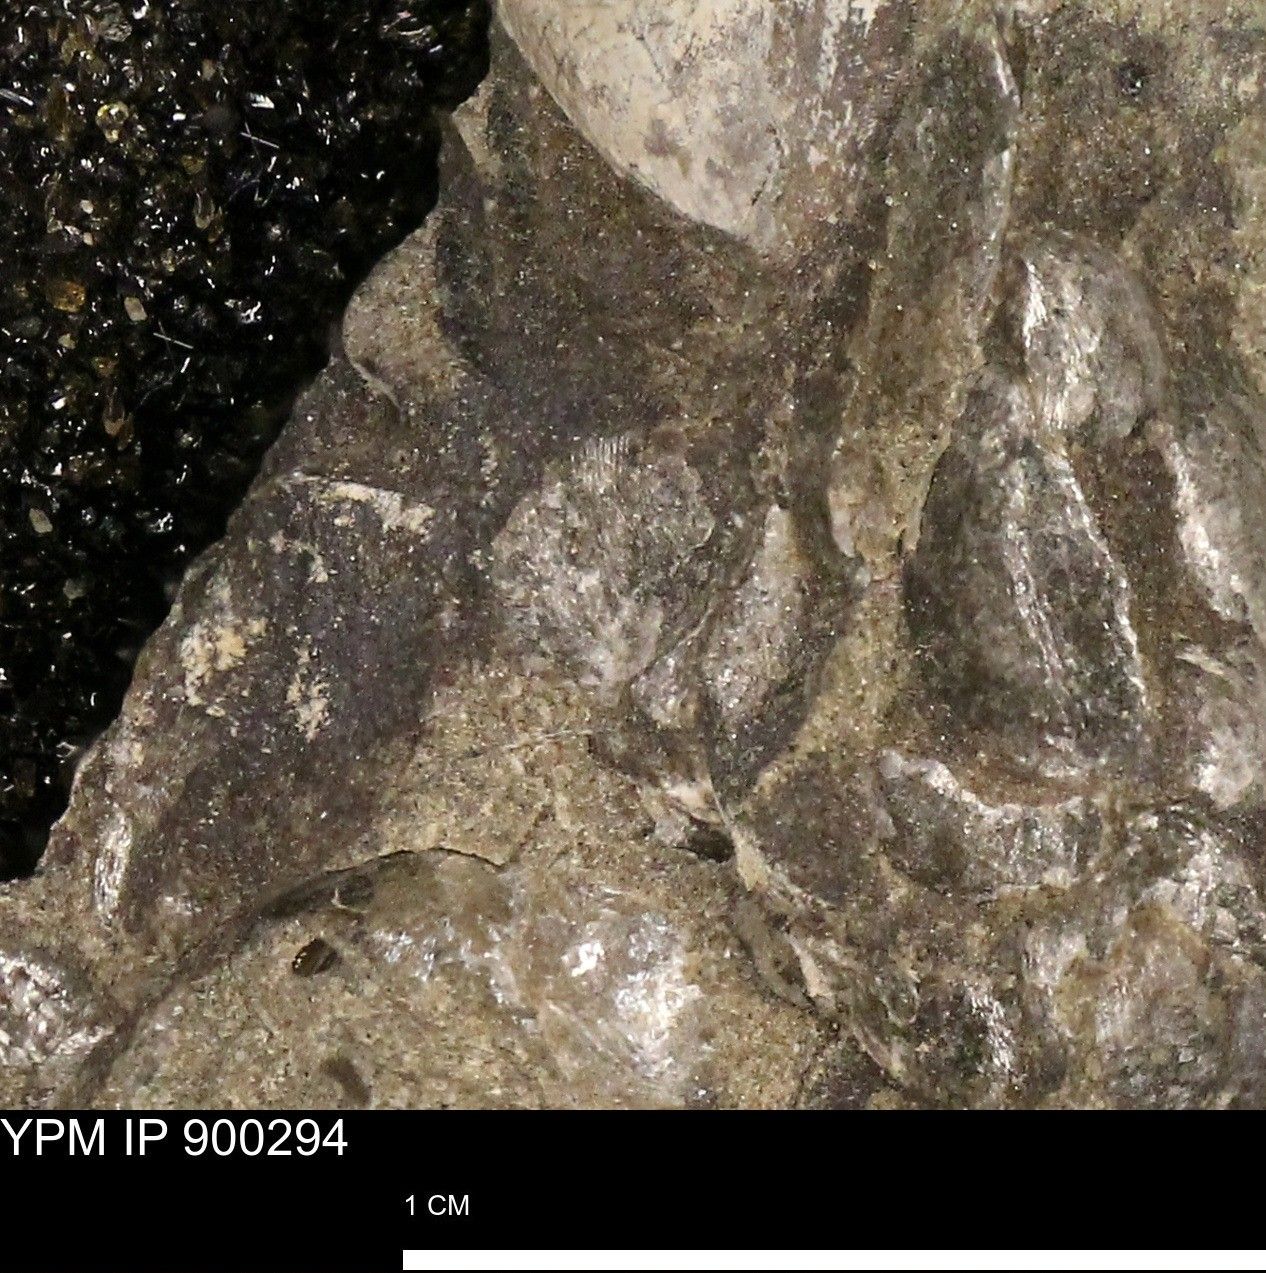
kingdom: Animalia
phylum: Mollusca
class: Bivalvia
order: Pectinida
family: Anomiidae
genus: Anomia
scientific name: Anomia
